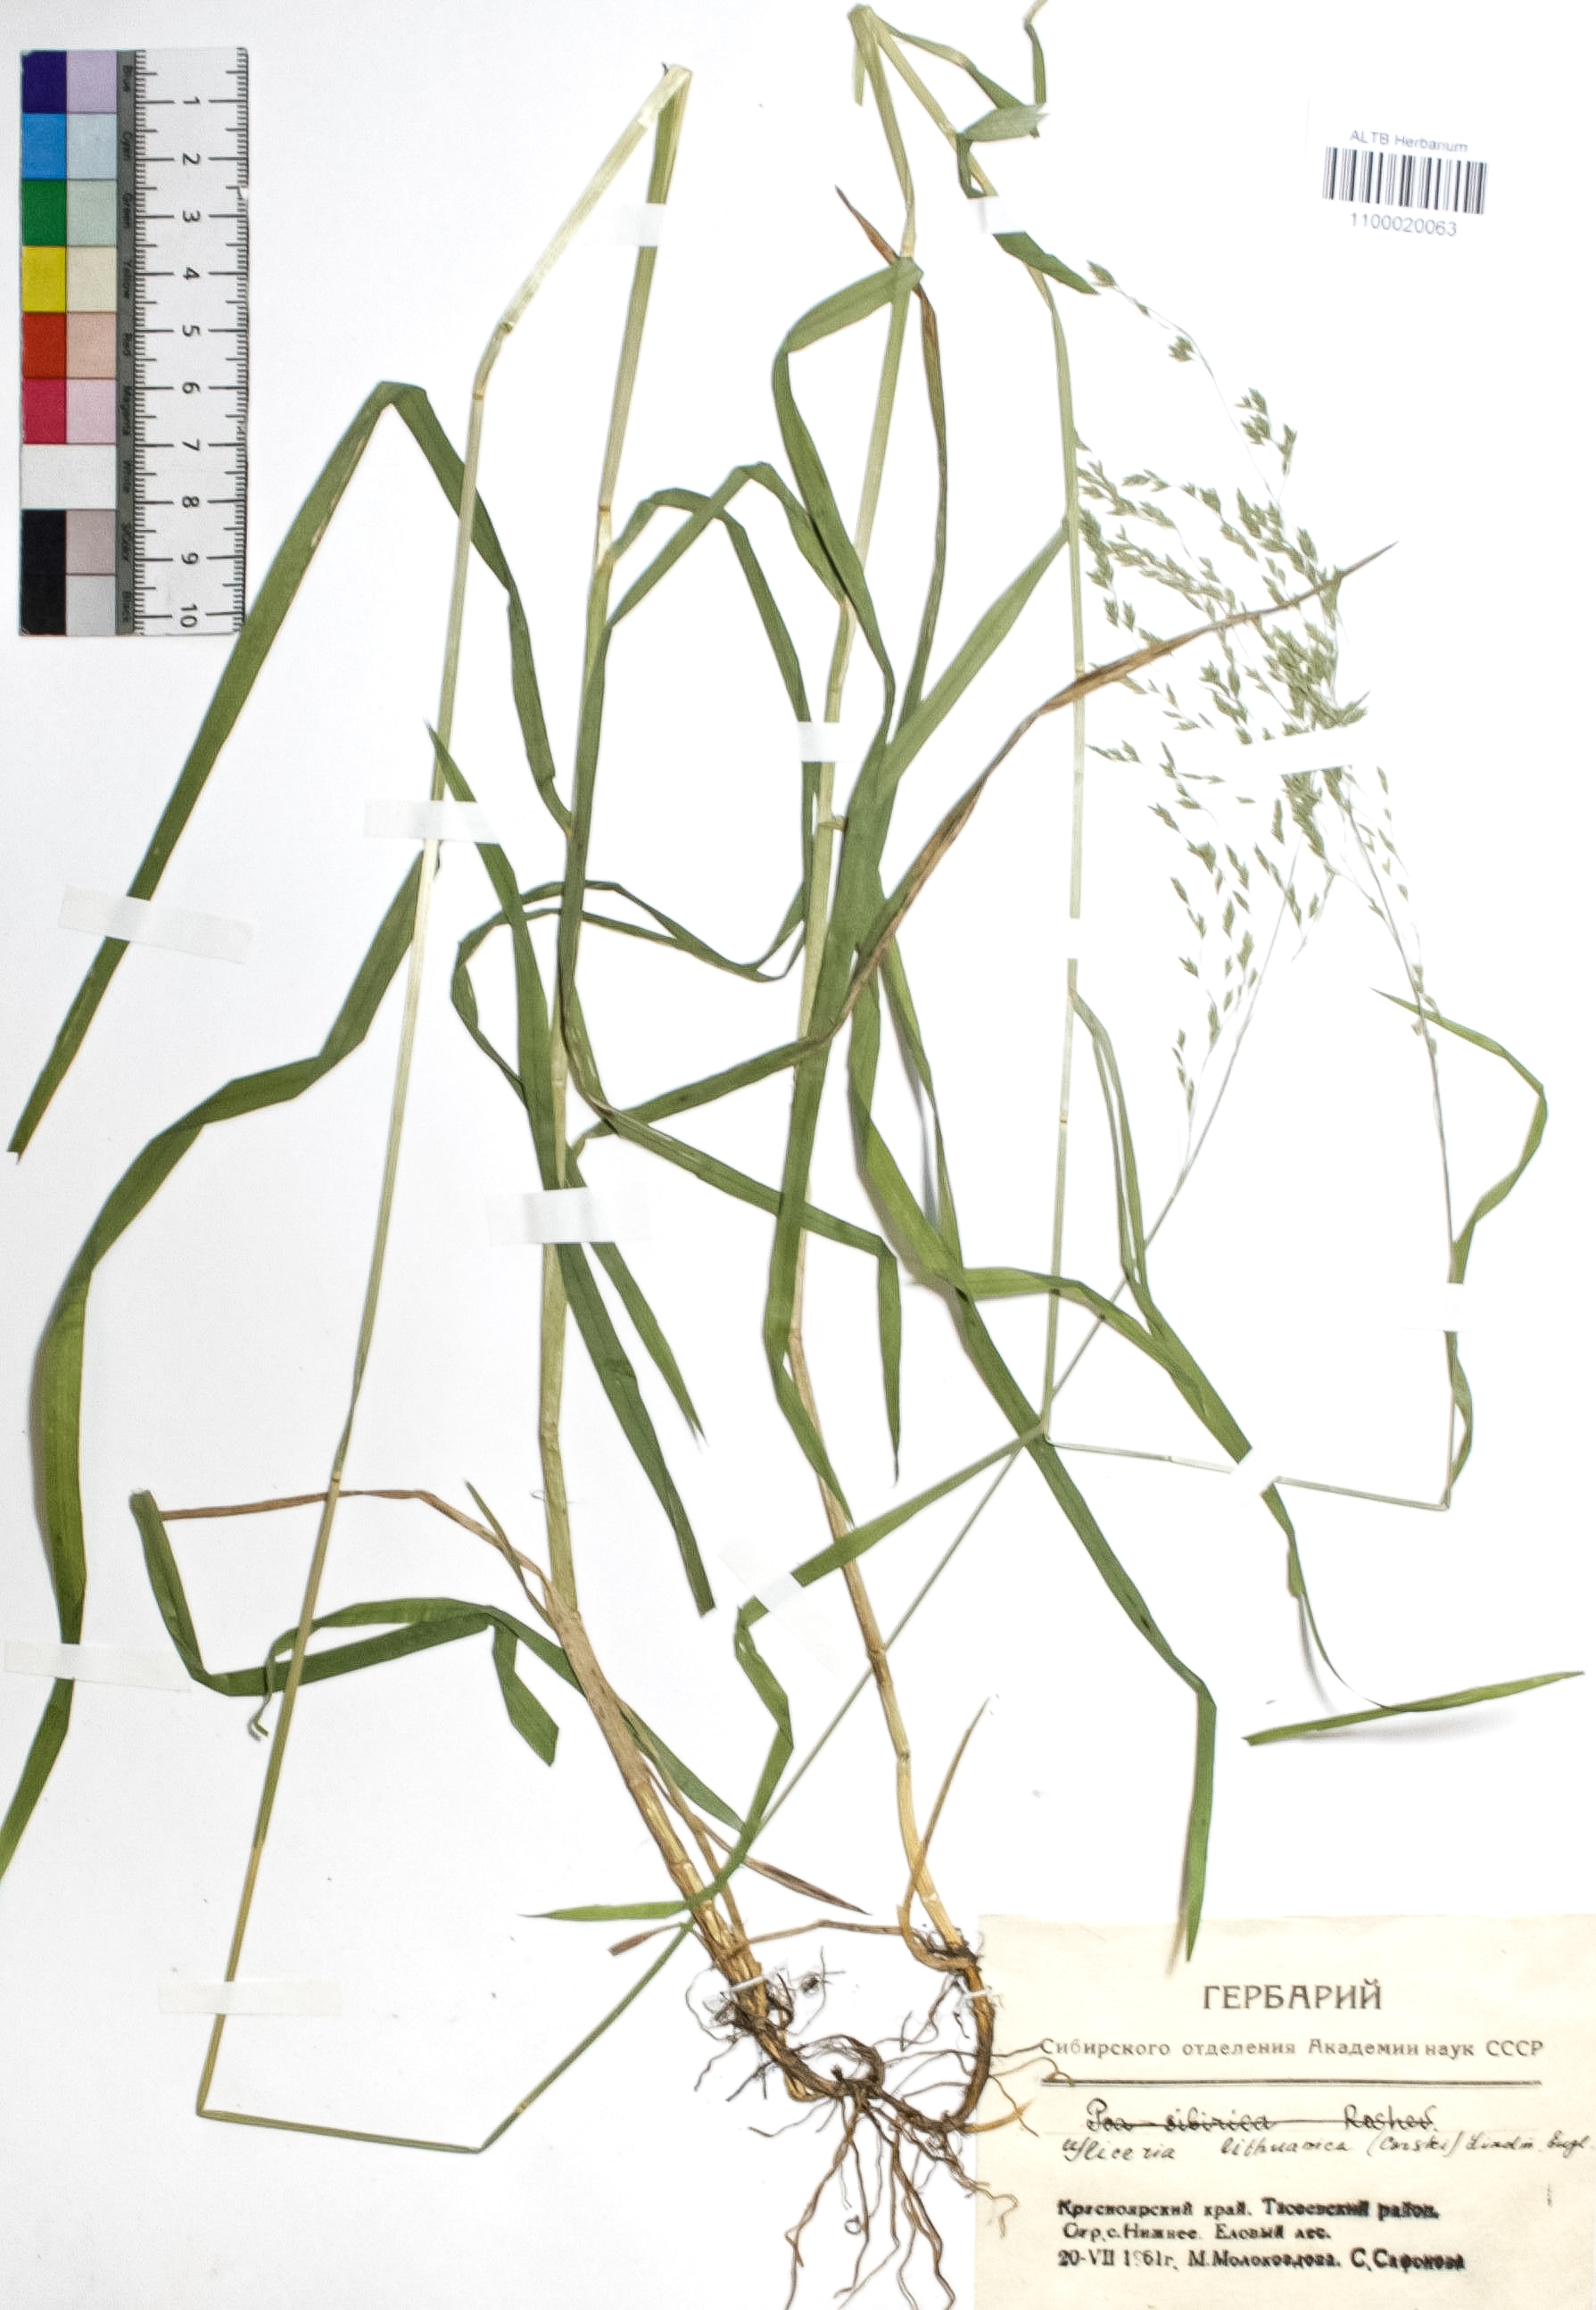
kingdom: Plantae
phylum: Tracheophyta
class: Liliopsida
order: Poales
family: Poaceae
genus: Glyceria
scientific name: Glyceria lithuanica
